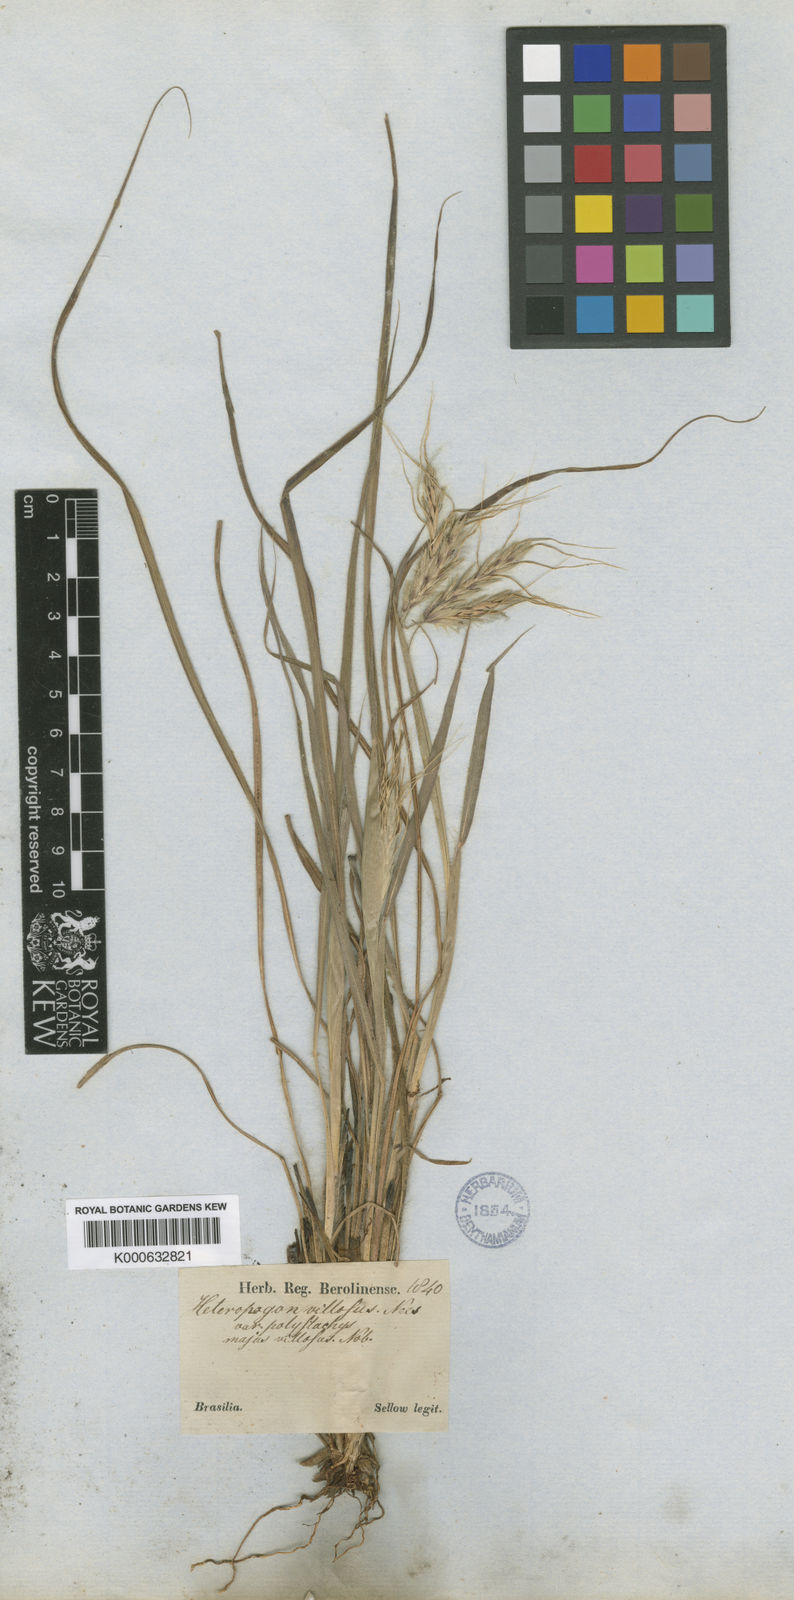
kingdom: Plantae
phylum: Tracheophyta
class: Liliopsida
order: Poales
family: Poaceae
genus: Agenium
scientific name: Agenium villosum
